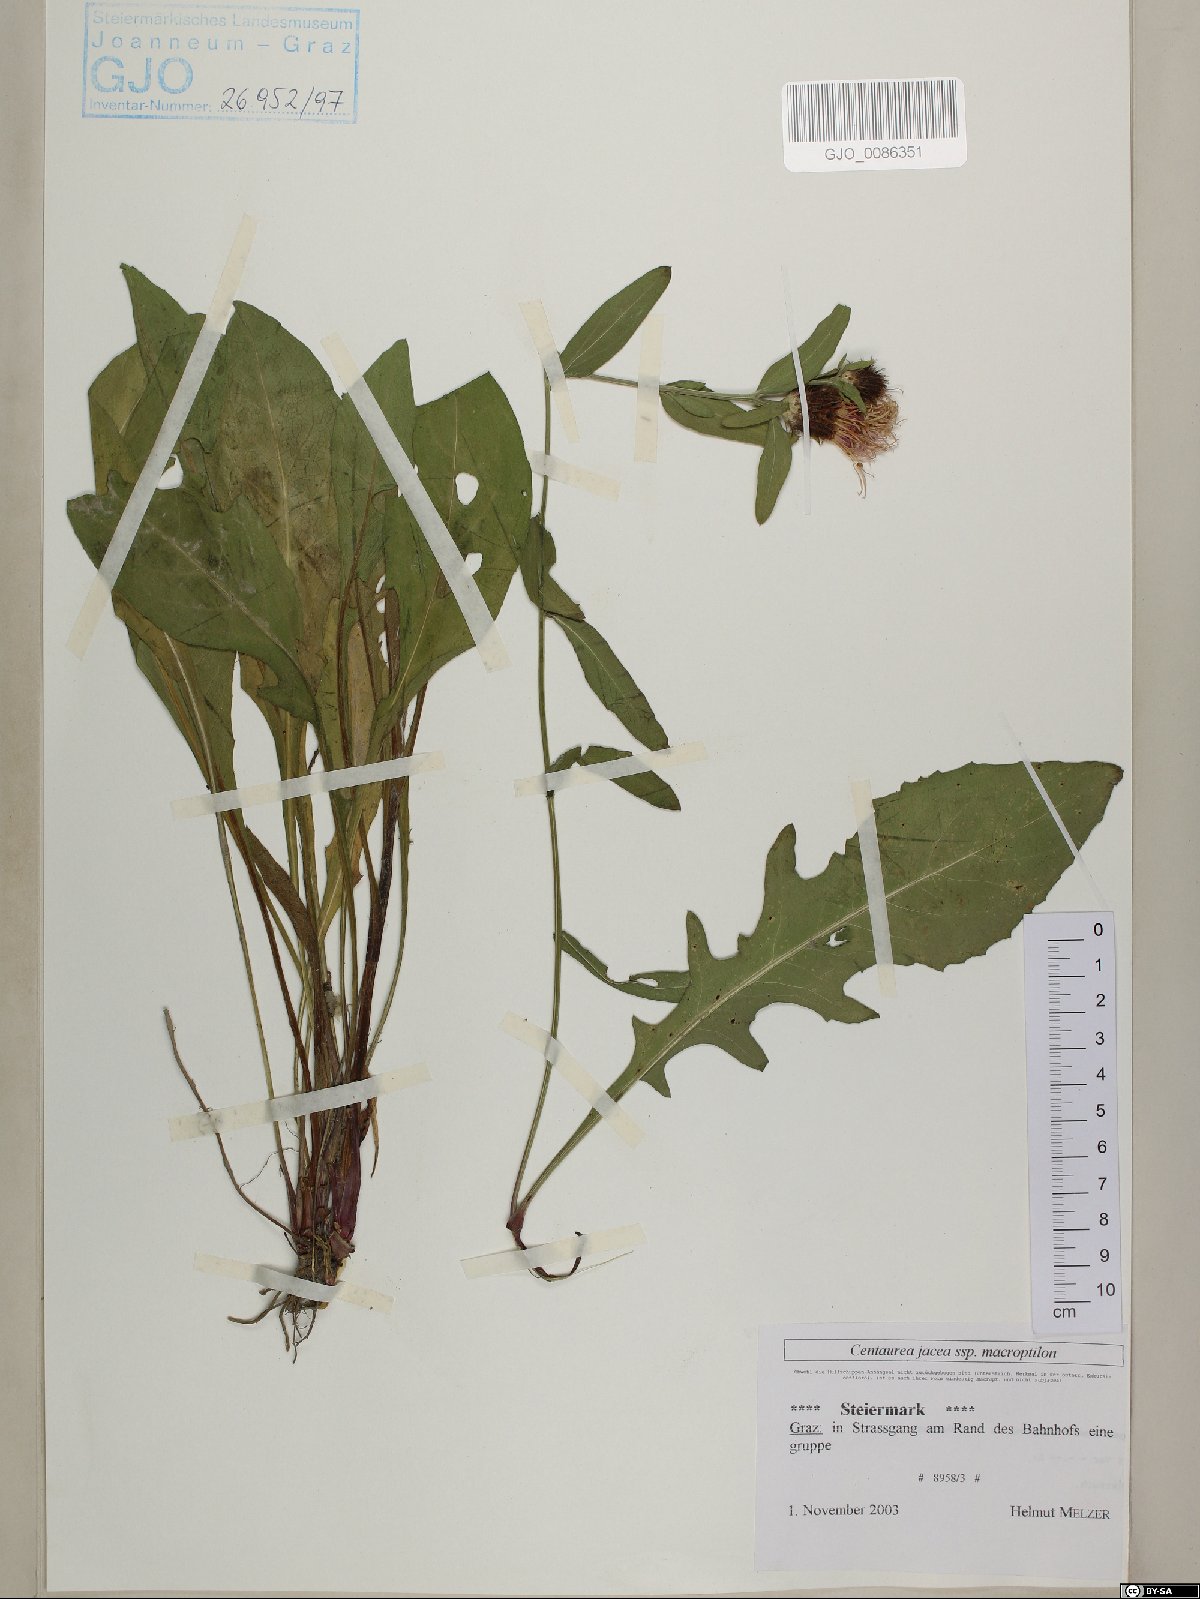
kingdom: Plantae
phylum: Tracheophyta
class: Magnoliopsida
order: Asterales
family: Asteraceae
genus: Centaurea
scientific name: Centaurea
